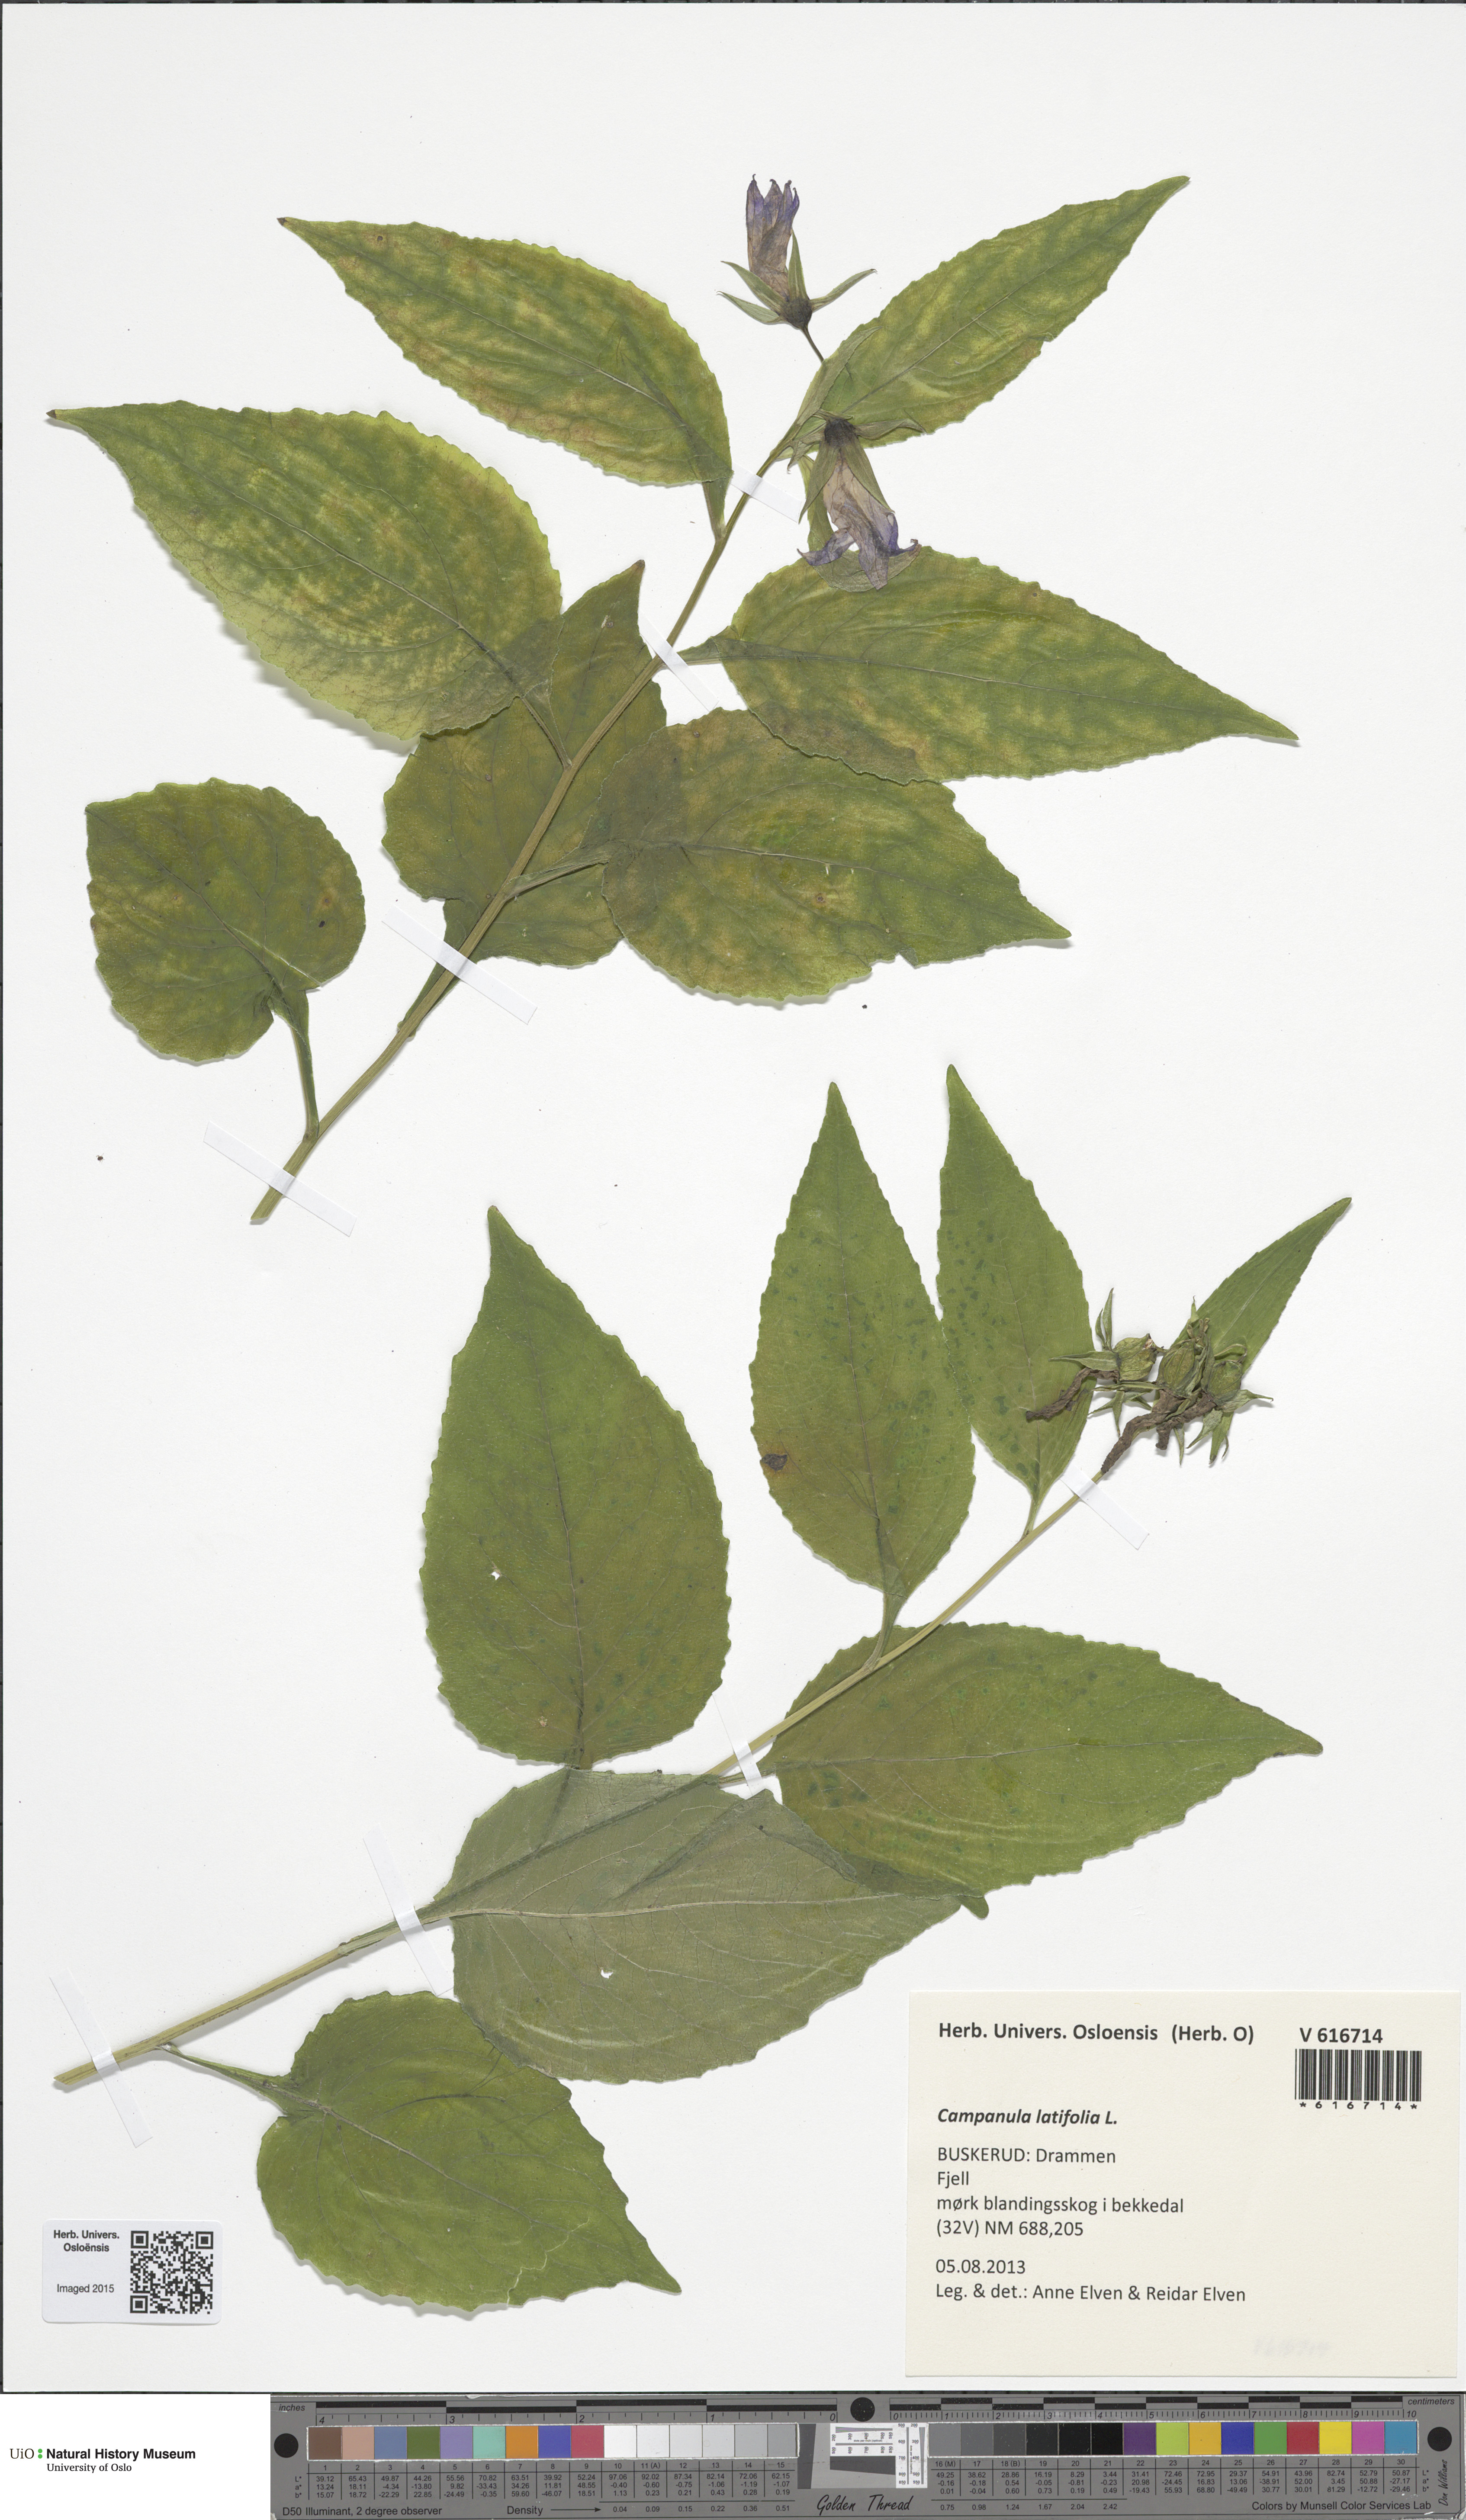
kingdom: Plantae
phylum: Tracheophyta
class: Magnoliopsida
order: Asterales
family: Campanulaceae
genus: Campanula
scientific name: Campanula latifolia
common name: Giant bellflower
